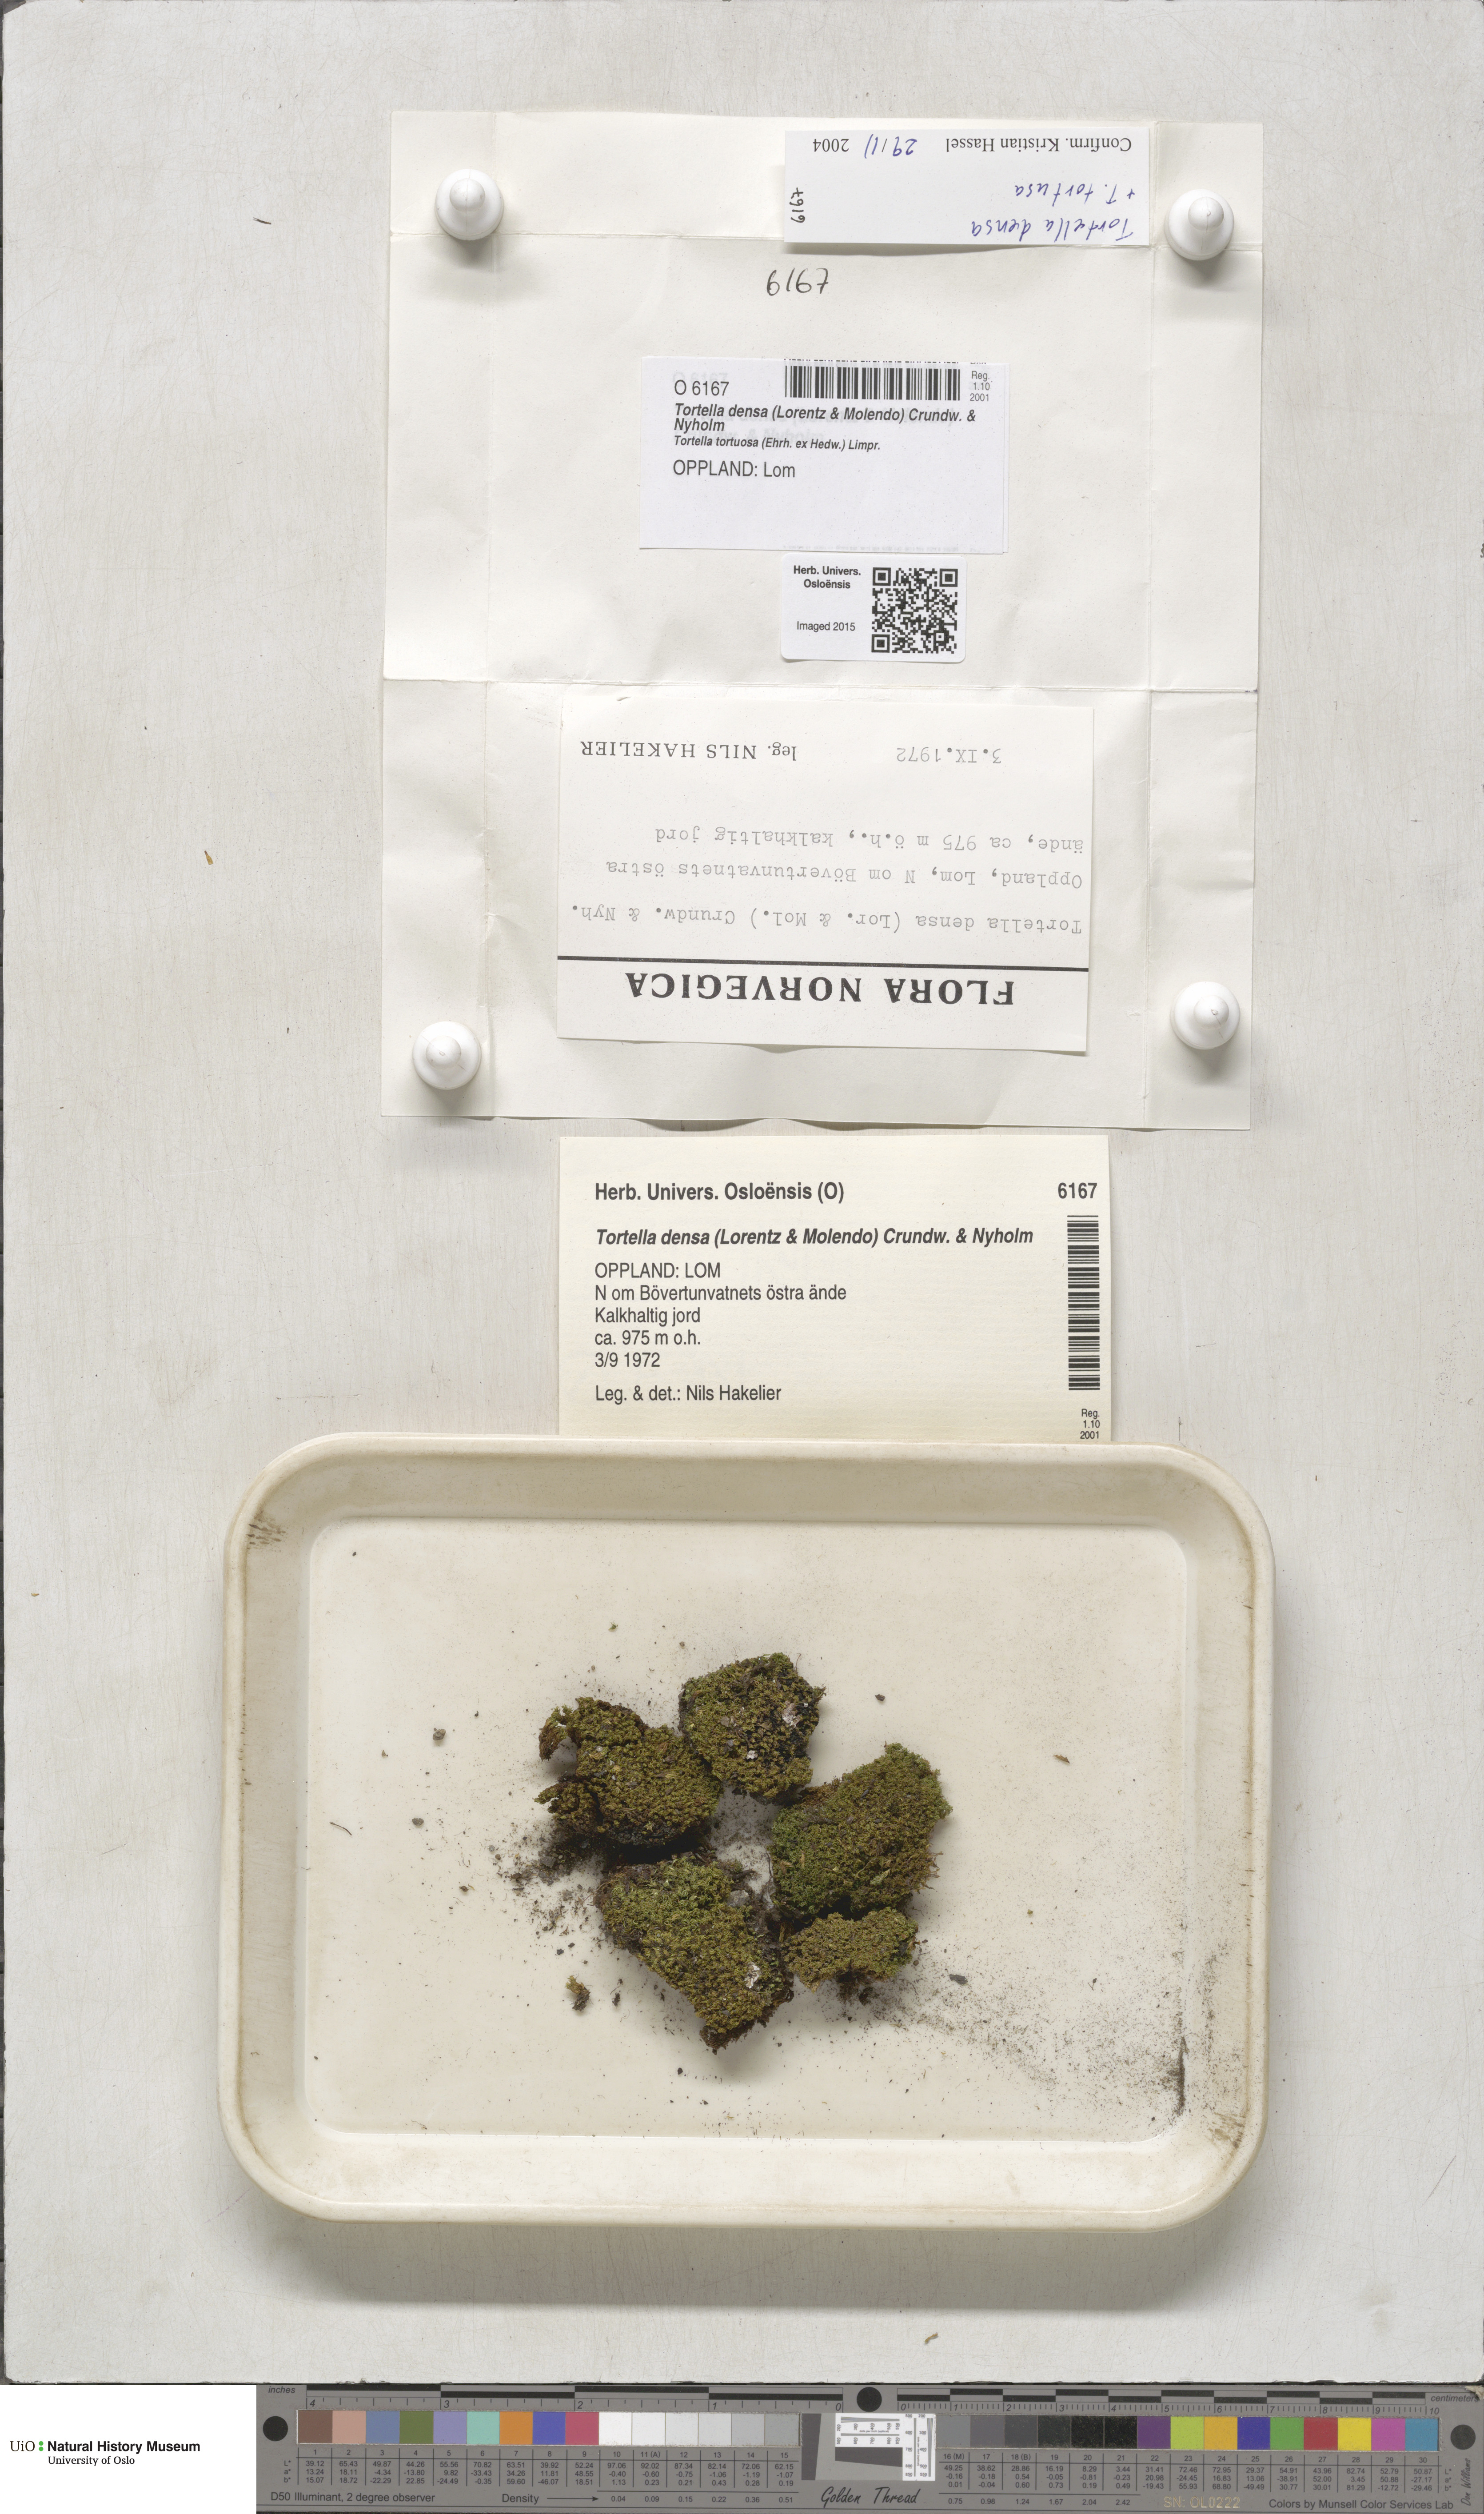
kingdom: Plantae
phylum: Bryophyta
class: Bryopsida
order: Pottiales
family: Pottiaceae
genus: Tortella
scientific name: Tortella densa
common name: Clint crisp-moss
